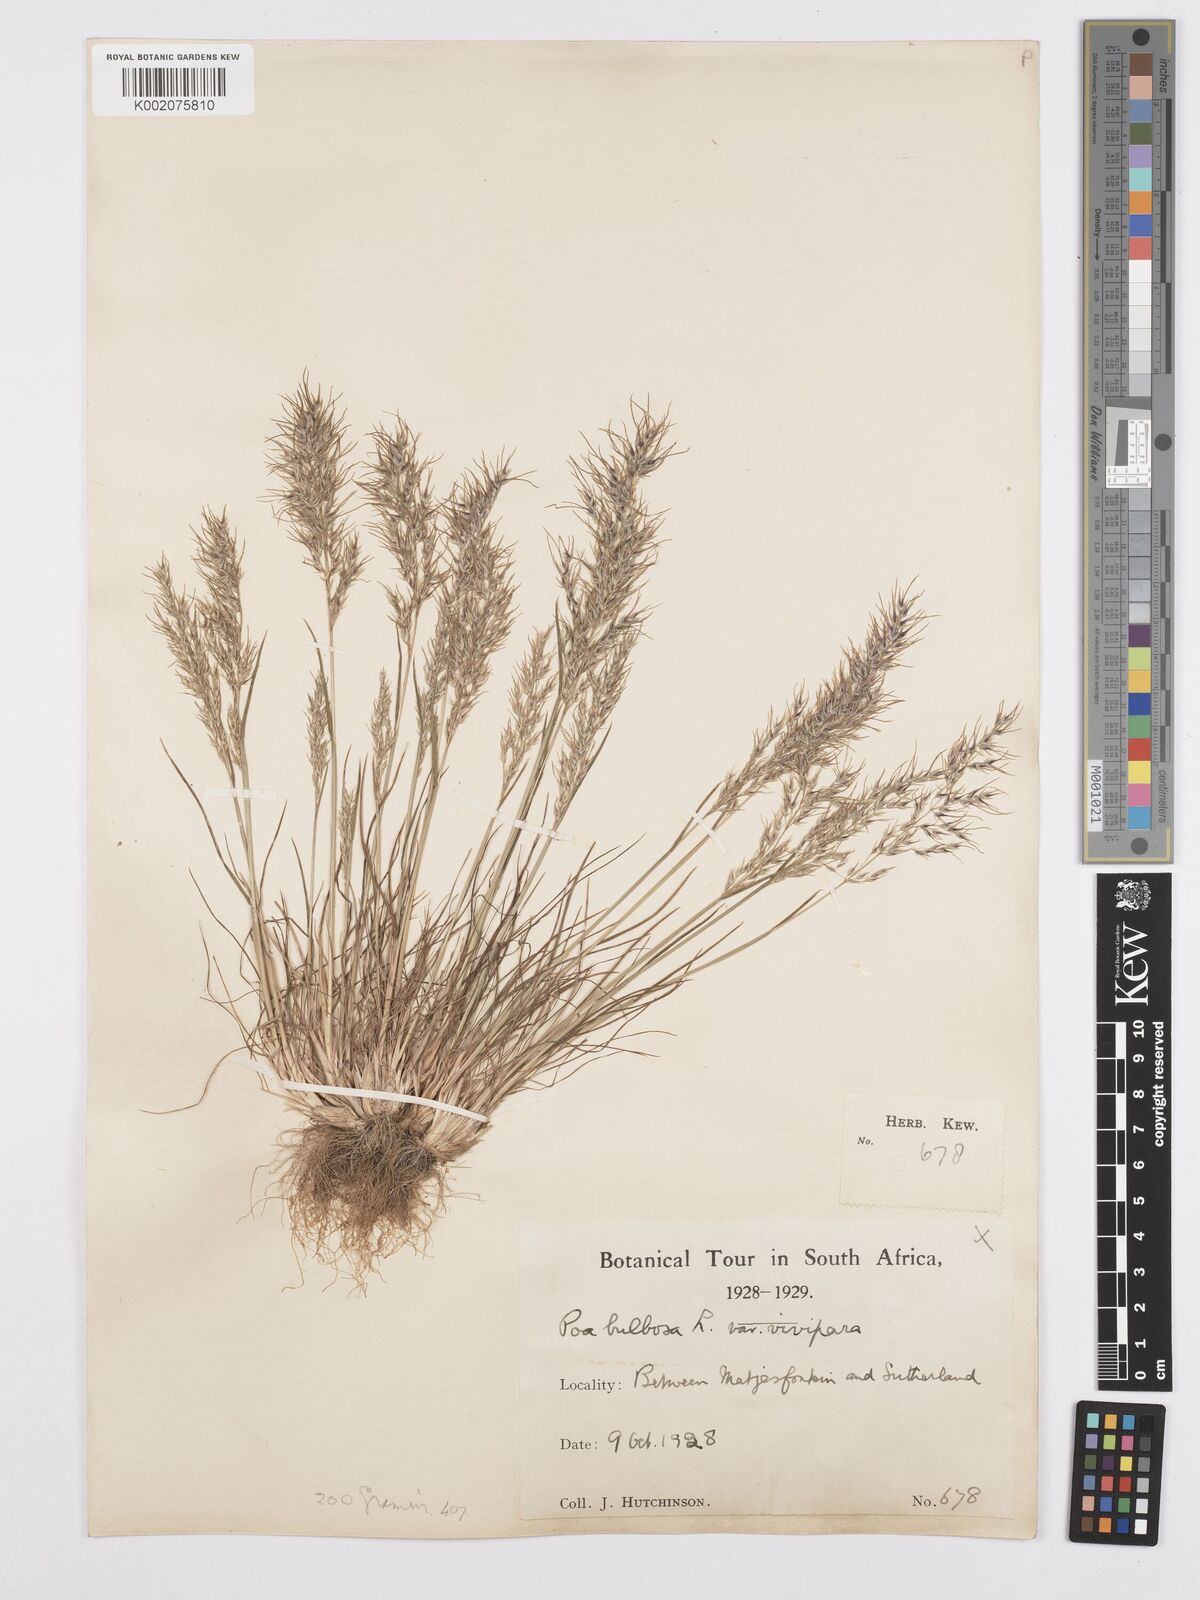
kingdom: Plantae
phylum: Tracheophyta
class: Liliopsida
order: Poales
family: Poaceae
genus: Poa
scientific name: Poa bulbosa
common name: Bulbous bluegrass
